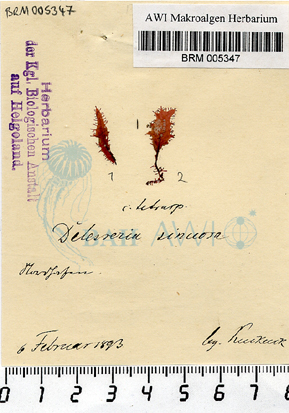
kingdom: Plantae
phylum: Rhodophyta
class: Florideophyceae
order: Ceramiales
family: Delesseriaceae
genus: Phycodrys
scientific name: Phycodrys rubens
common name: Sea oak
